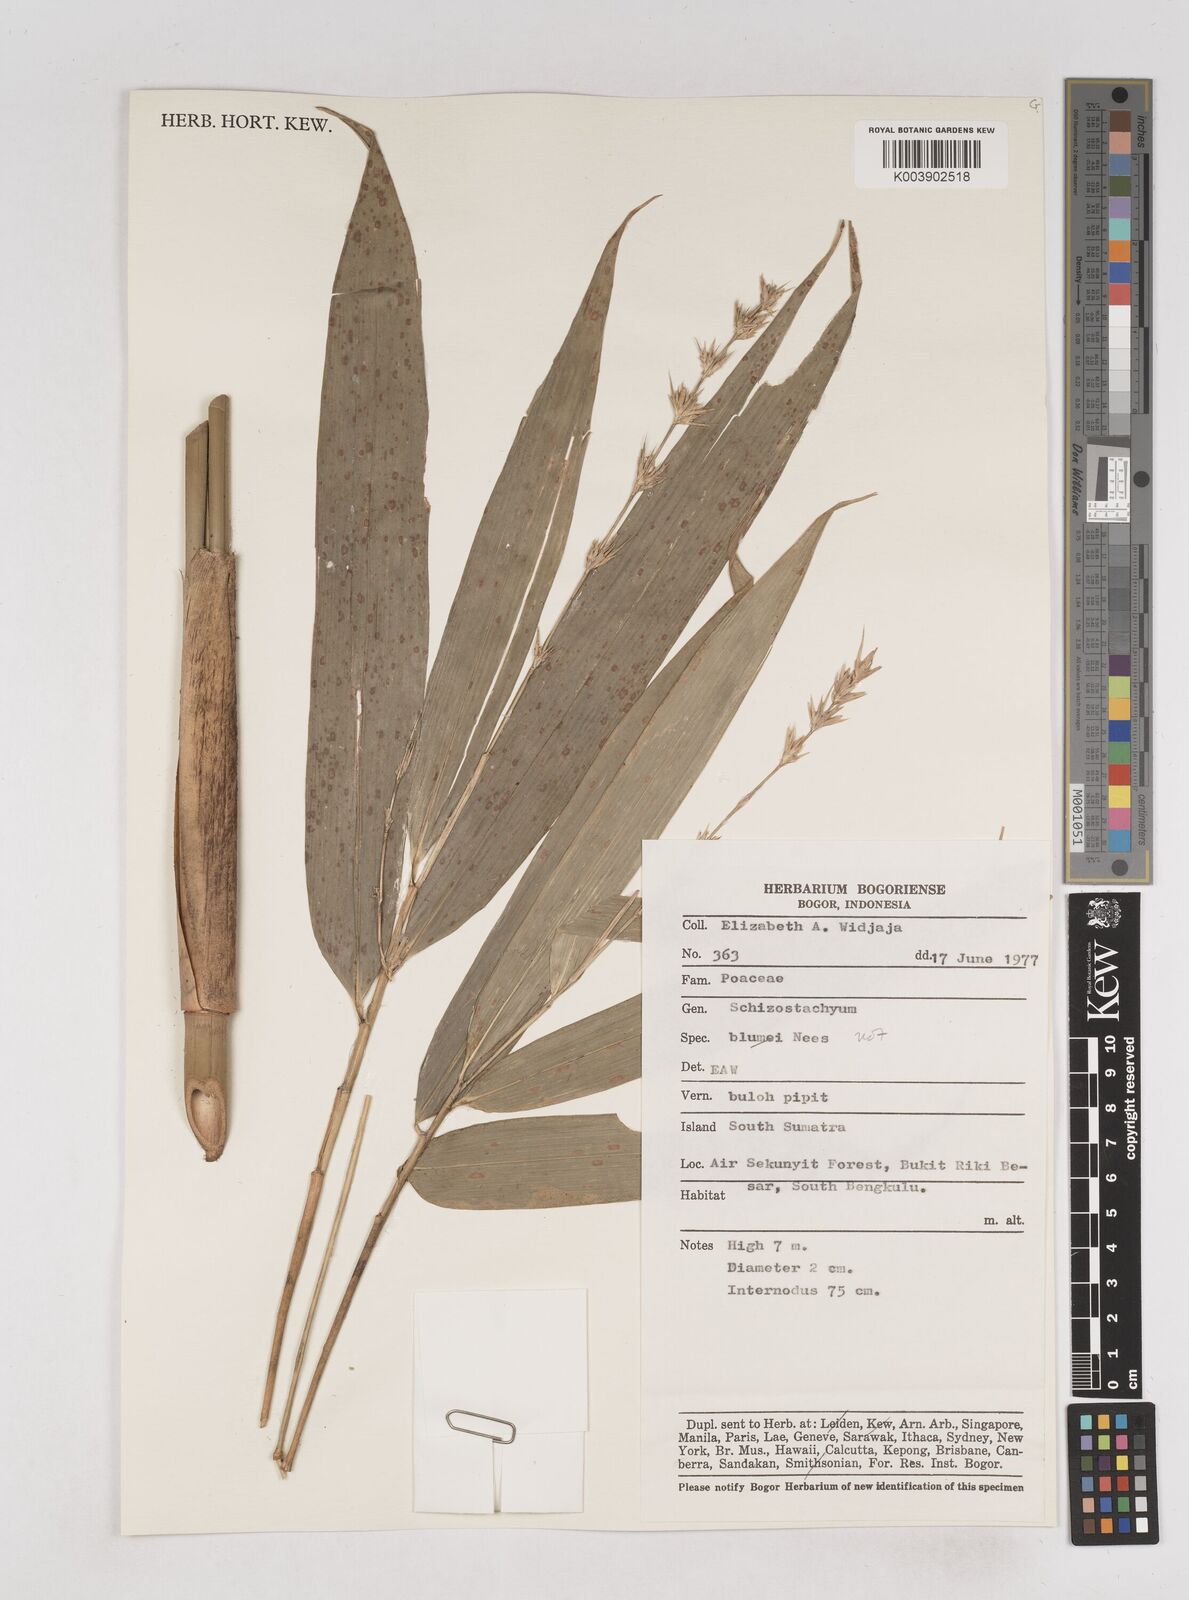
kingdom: Plantae
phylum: Tracheophyta
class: Liliopsida
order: Poales
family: Poaceae
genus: Schizostachyum
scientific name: Schizostachyum
